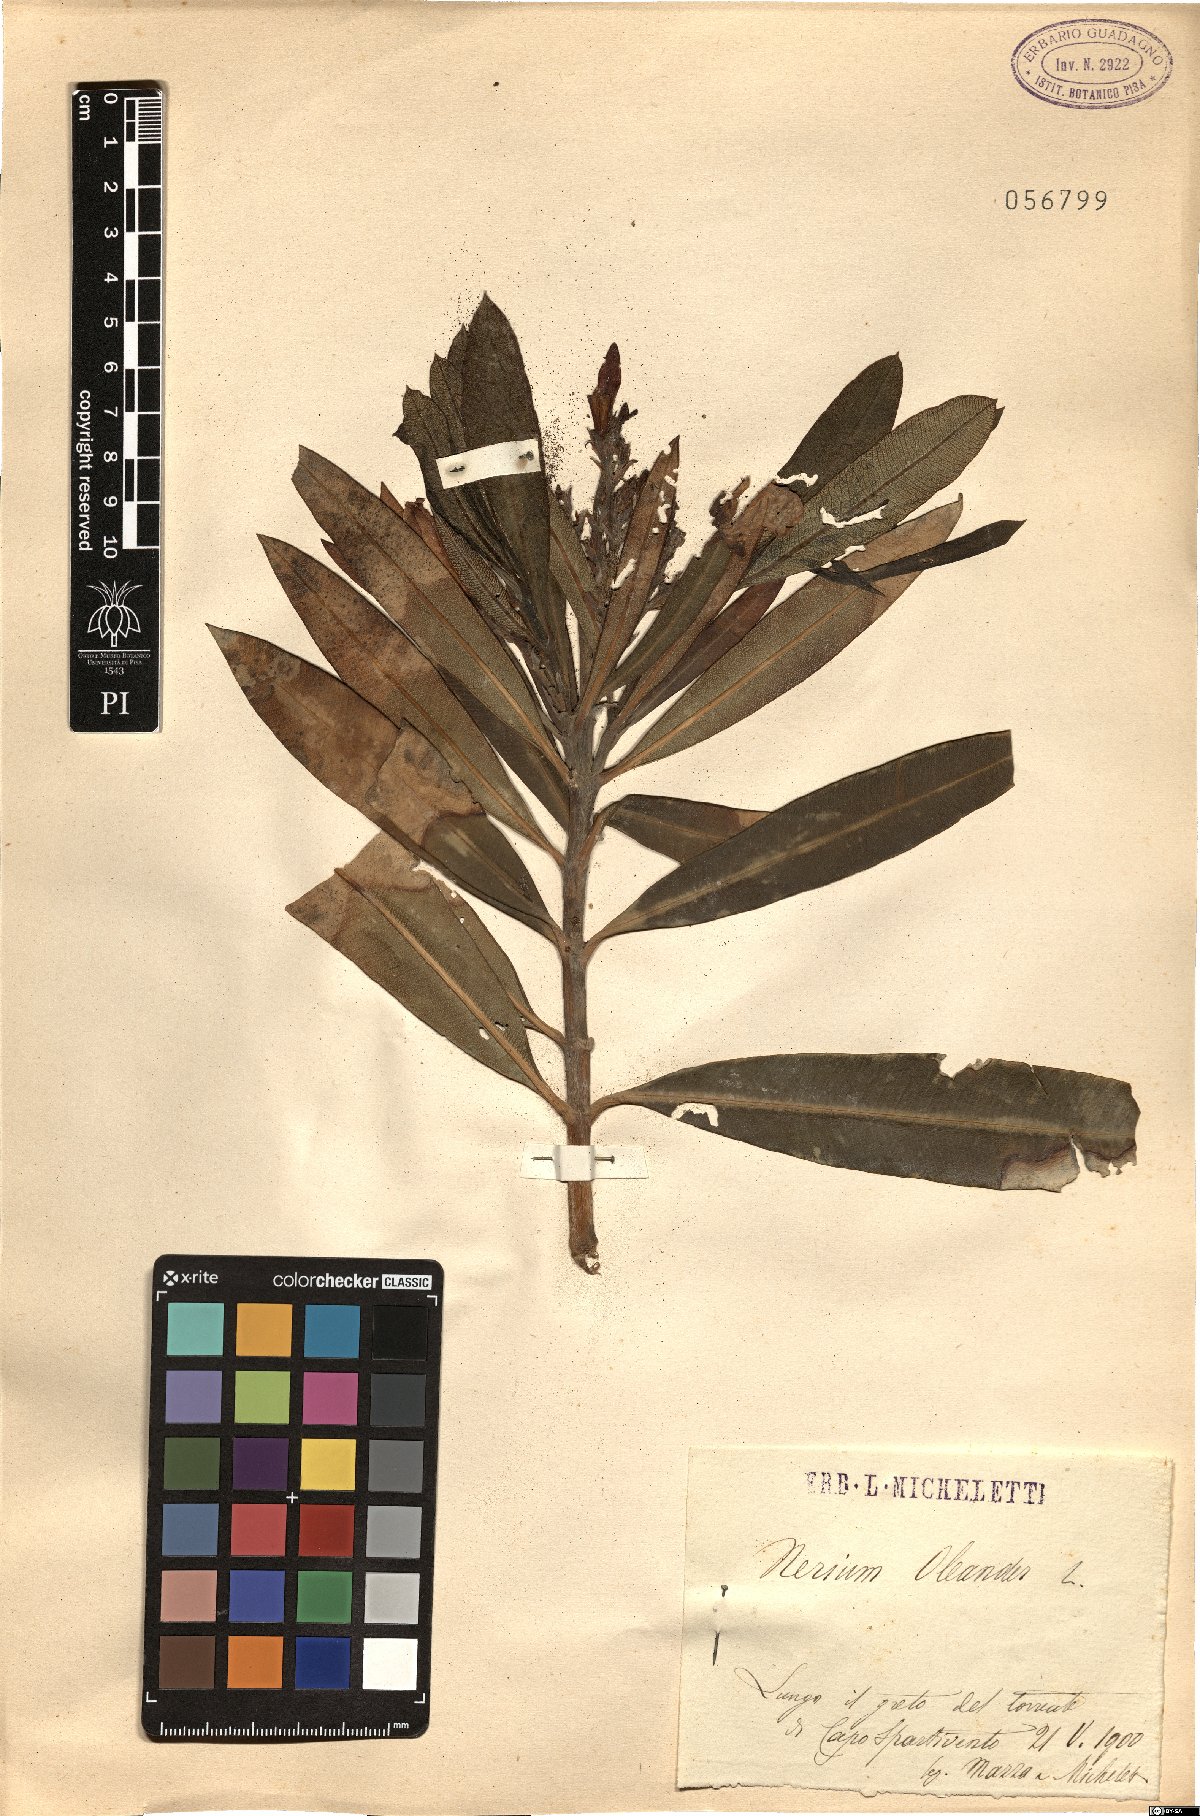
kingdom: Plantae
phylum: Tracheophyta
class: Magnoliopsida
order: Gentianales
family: Apocynaceae
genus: Nerium
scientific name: Nerium oleander
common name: Oleander
